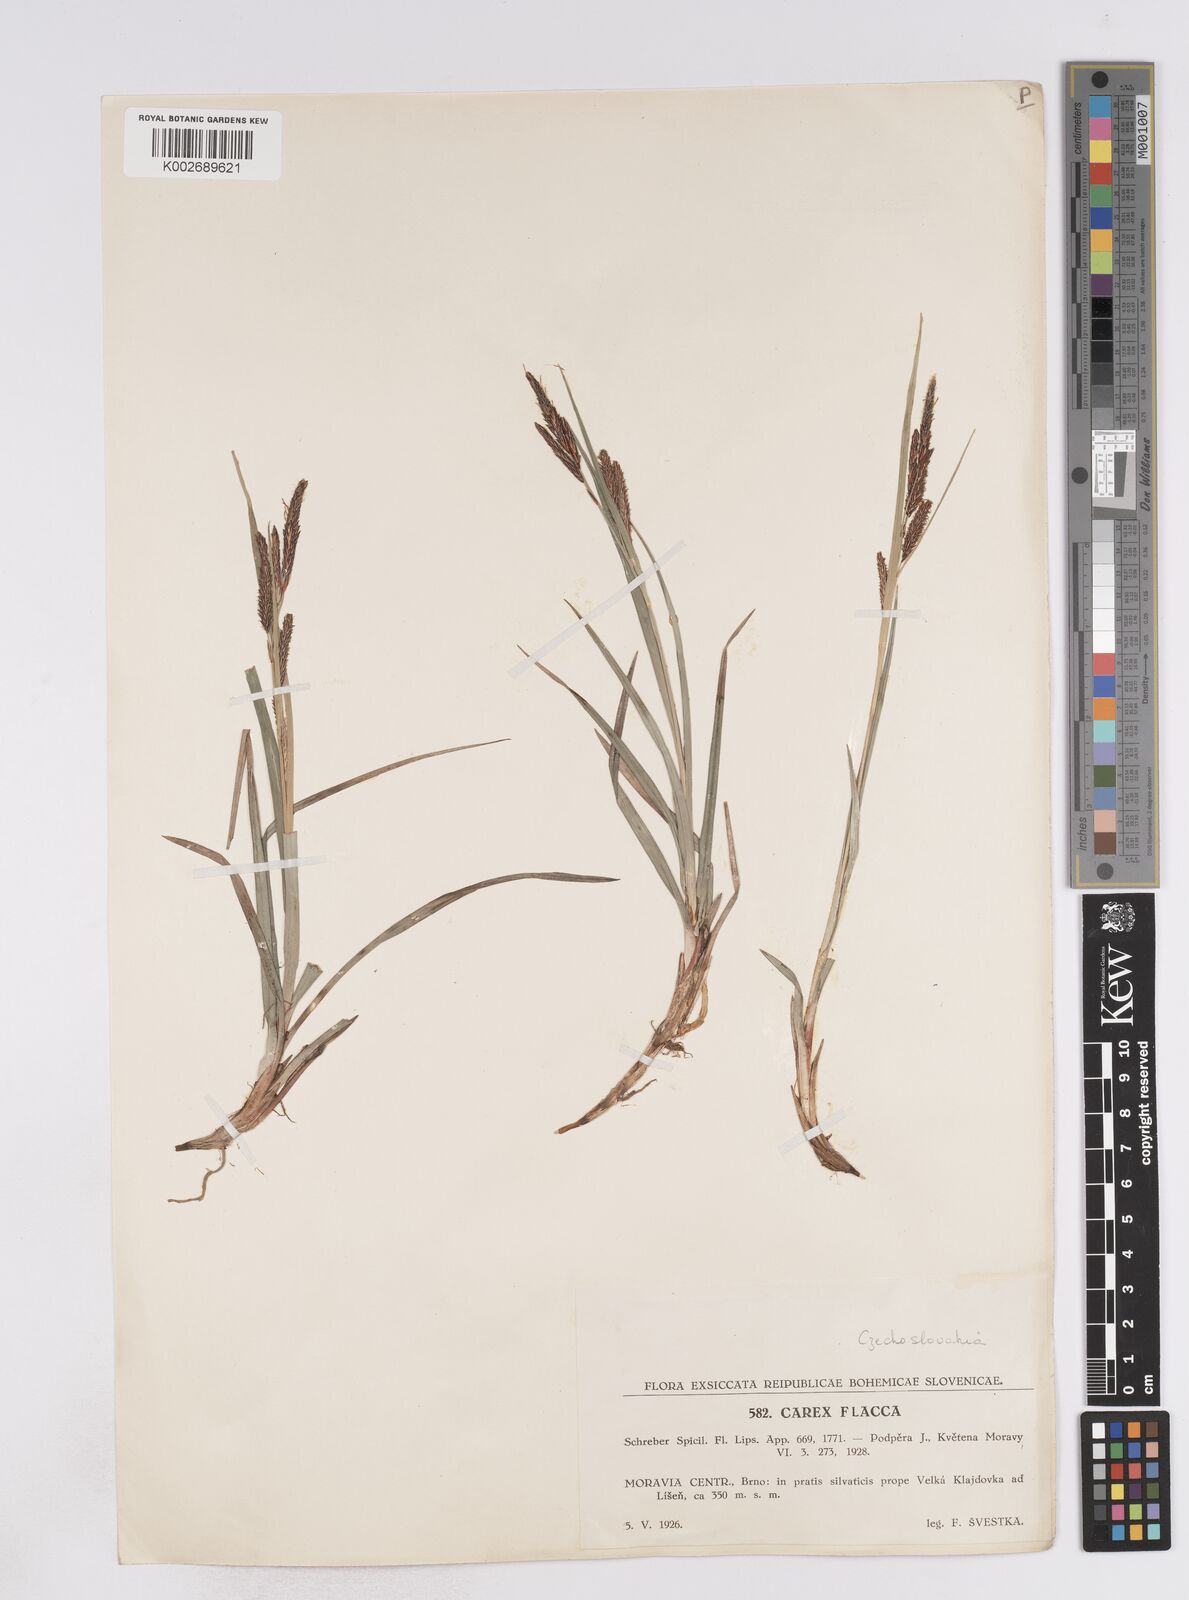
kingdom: Plantae
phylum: Tracheophyta
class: Liliopsida
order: Poales
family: Cyperaceae
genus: Carex
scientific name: Carex flacca
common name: Glaucous sedge
